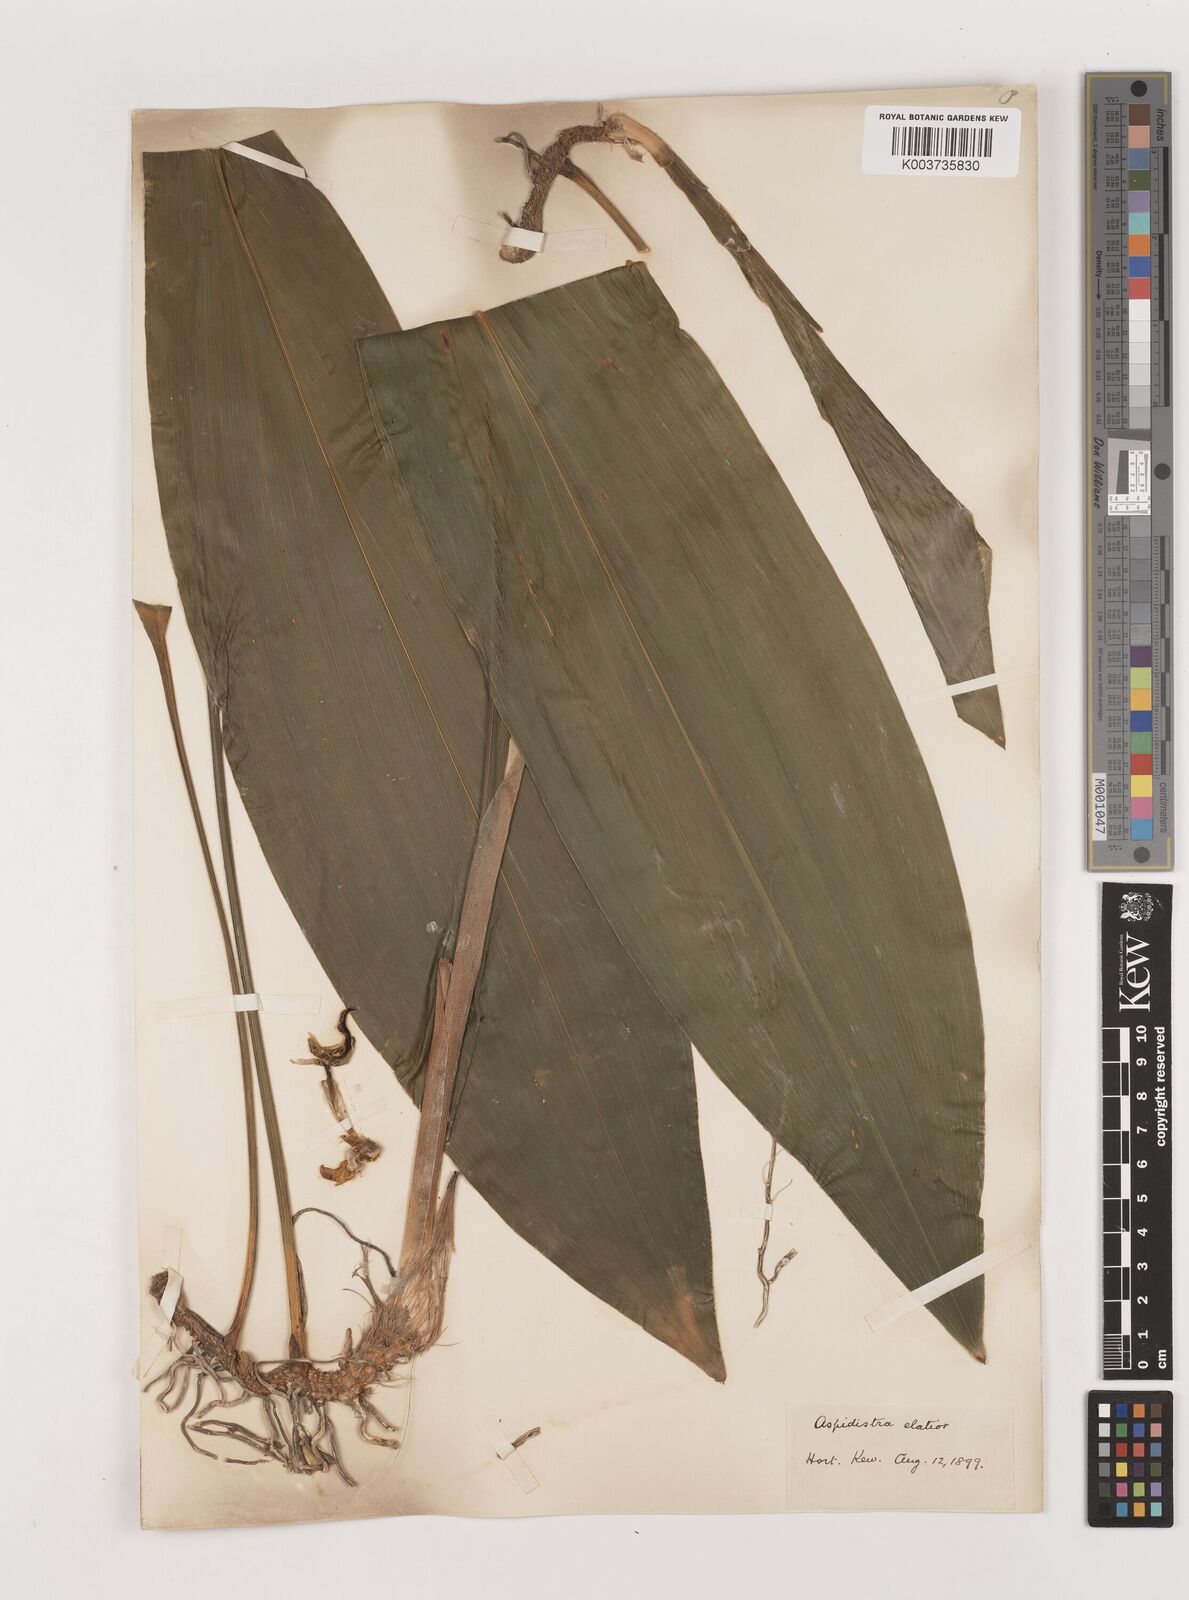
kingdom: Plantae
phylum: Tracheophyta
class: Liliopsida
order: Asparagales
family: Asparagaceae
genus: Aspidistra
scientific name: Aspidistra elatior
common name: Cast-iron-plant
